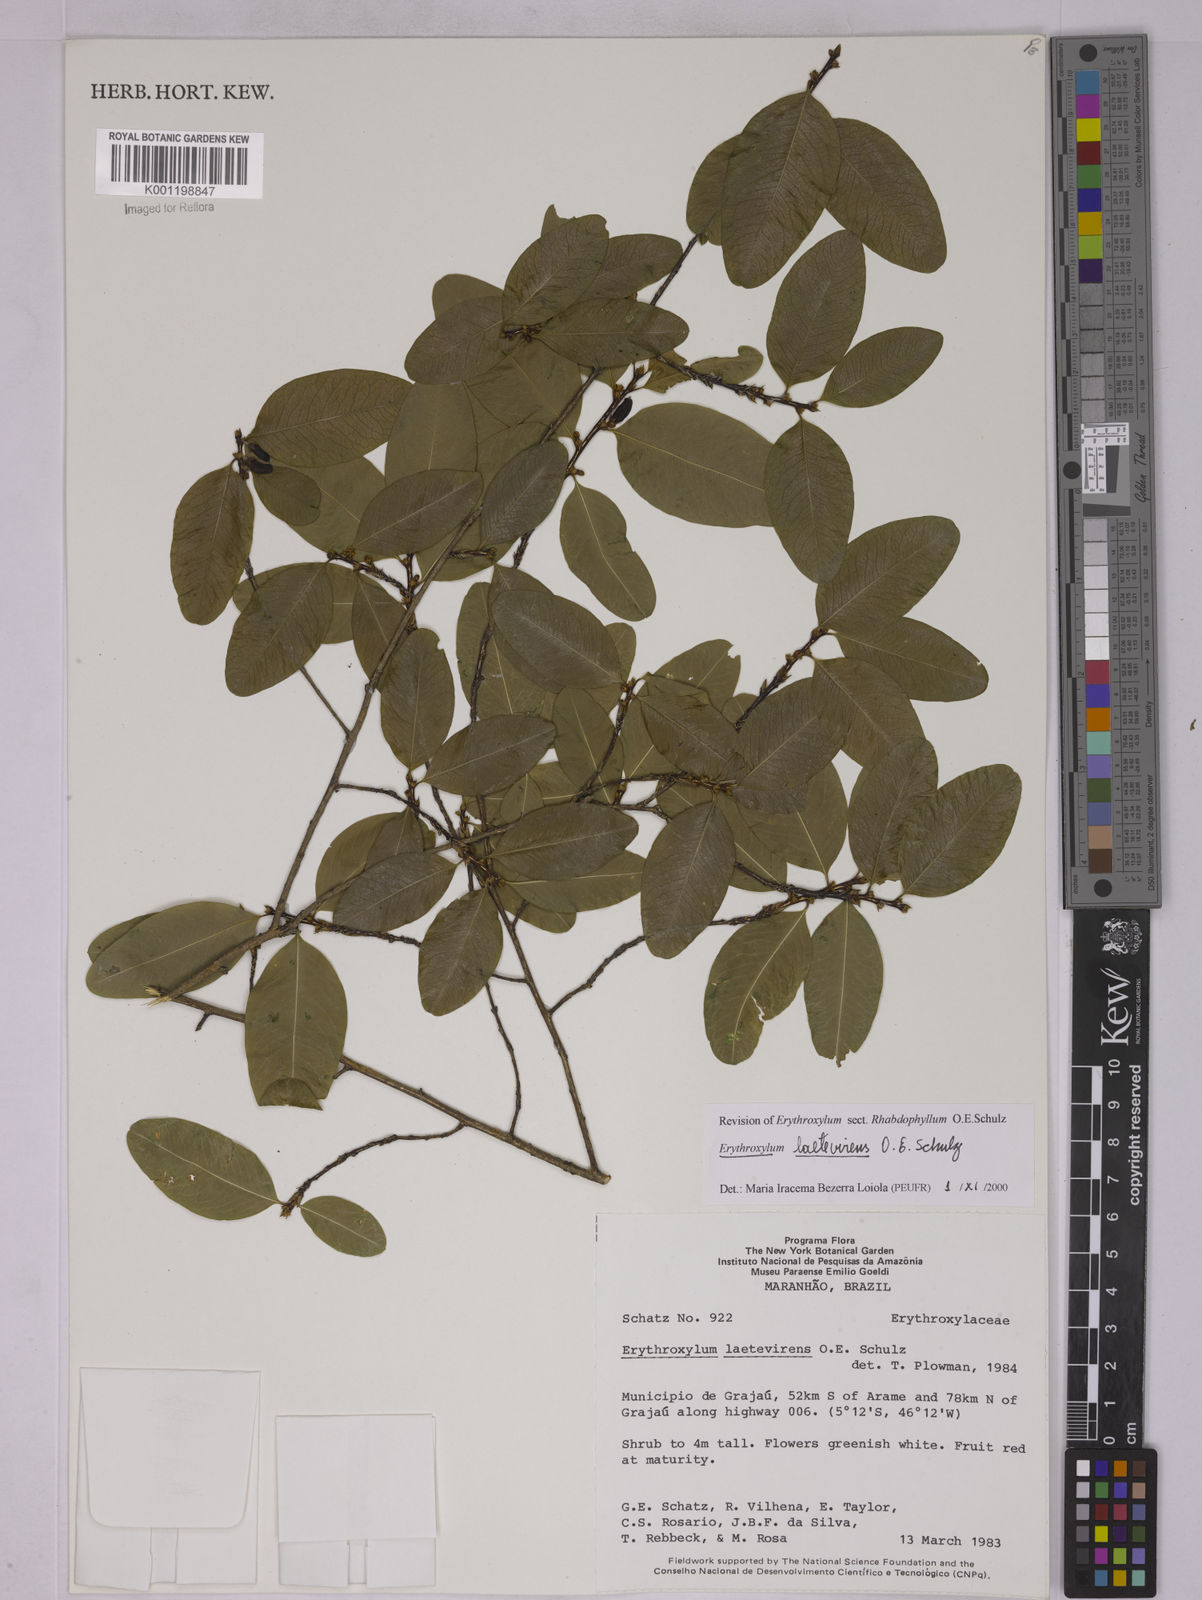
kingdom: Plantae
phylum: Tracheophyta
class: Magnoliopsida
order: Malpighiales
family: Erythroxylaceae
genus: Erythroxylum
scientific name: Erythroxylum laetevirens
